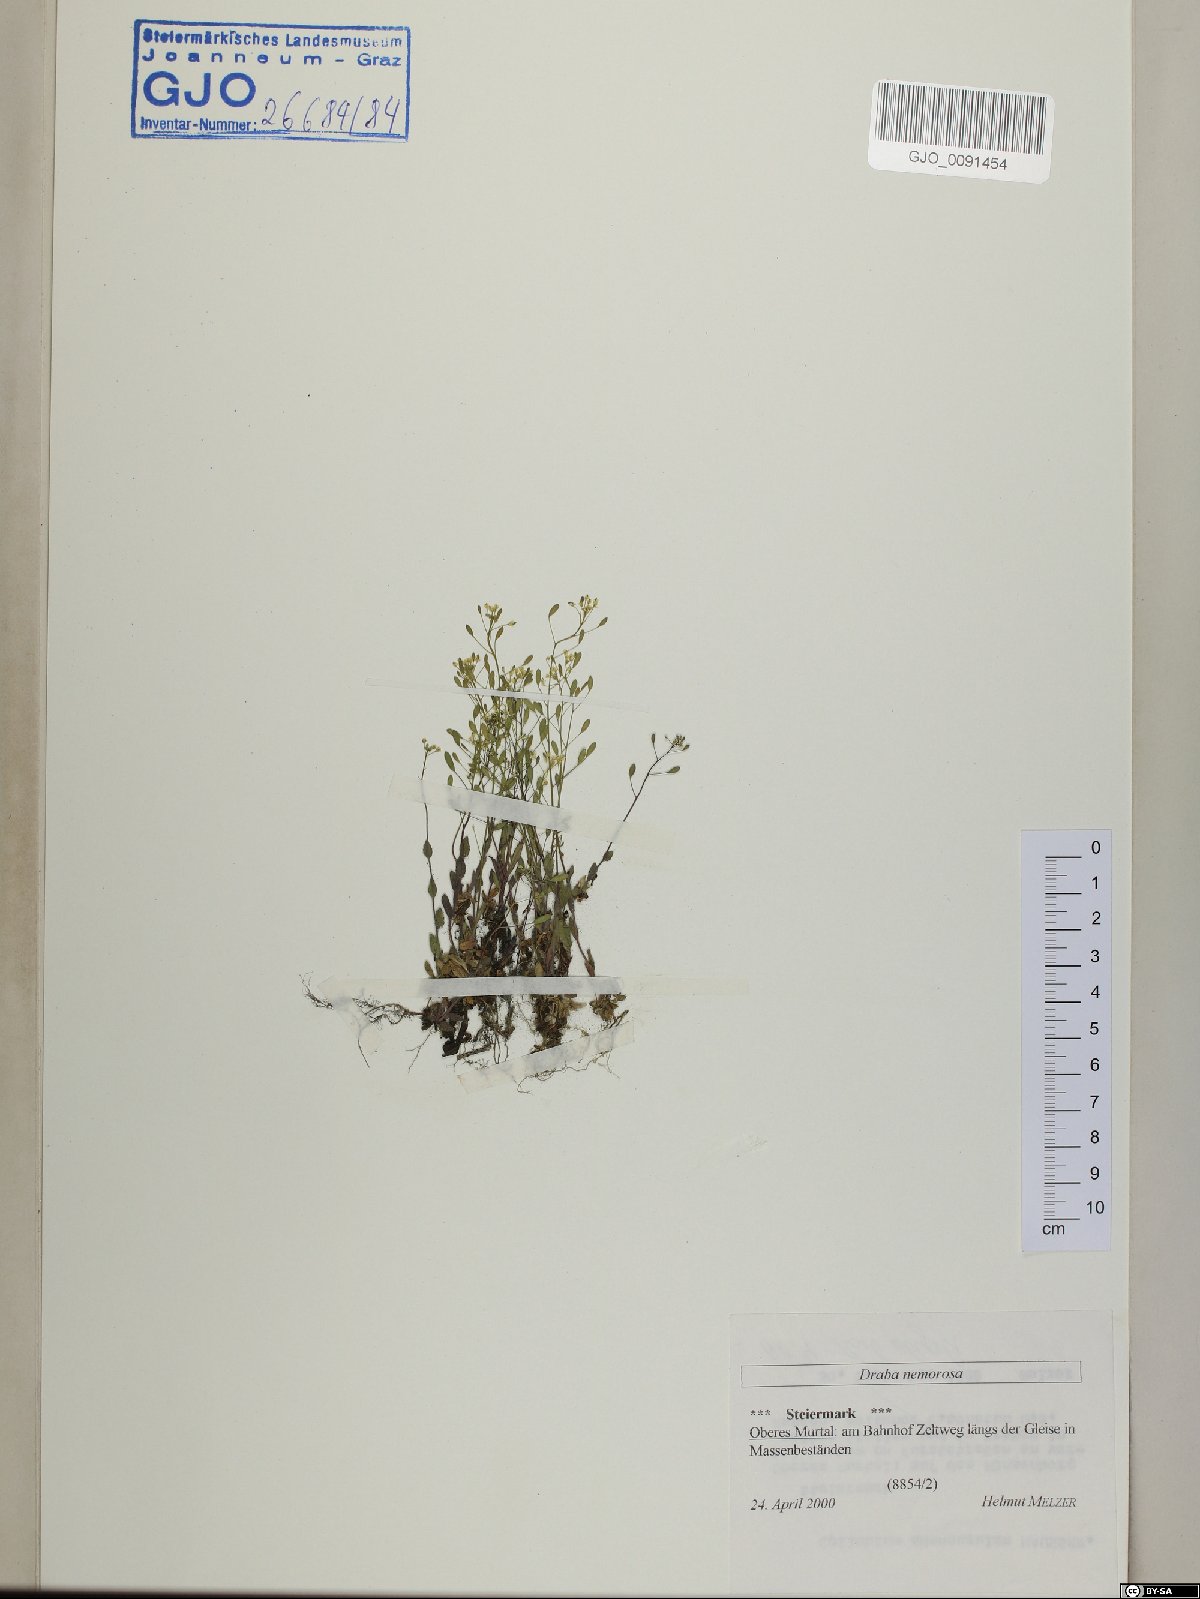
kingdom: Plantae
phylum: Tracheophyta
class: Magnoliopsida
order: Brassicales
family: Brassicaceae
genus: Draba
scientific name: Draba nemorosa
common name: Wood whitlow-grass
